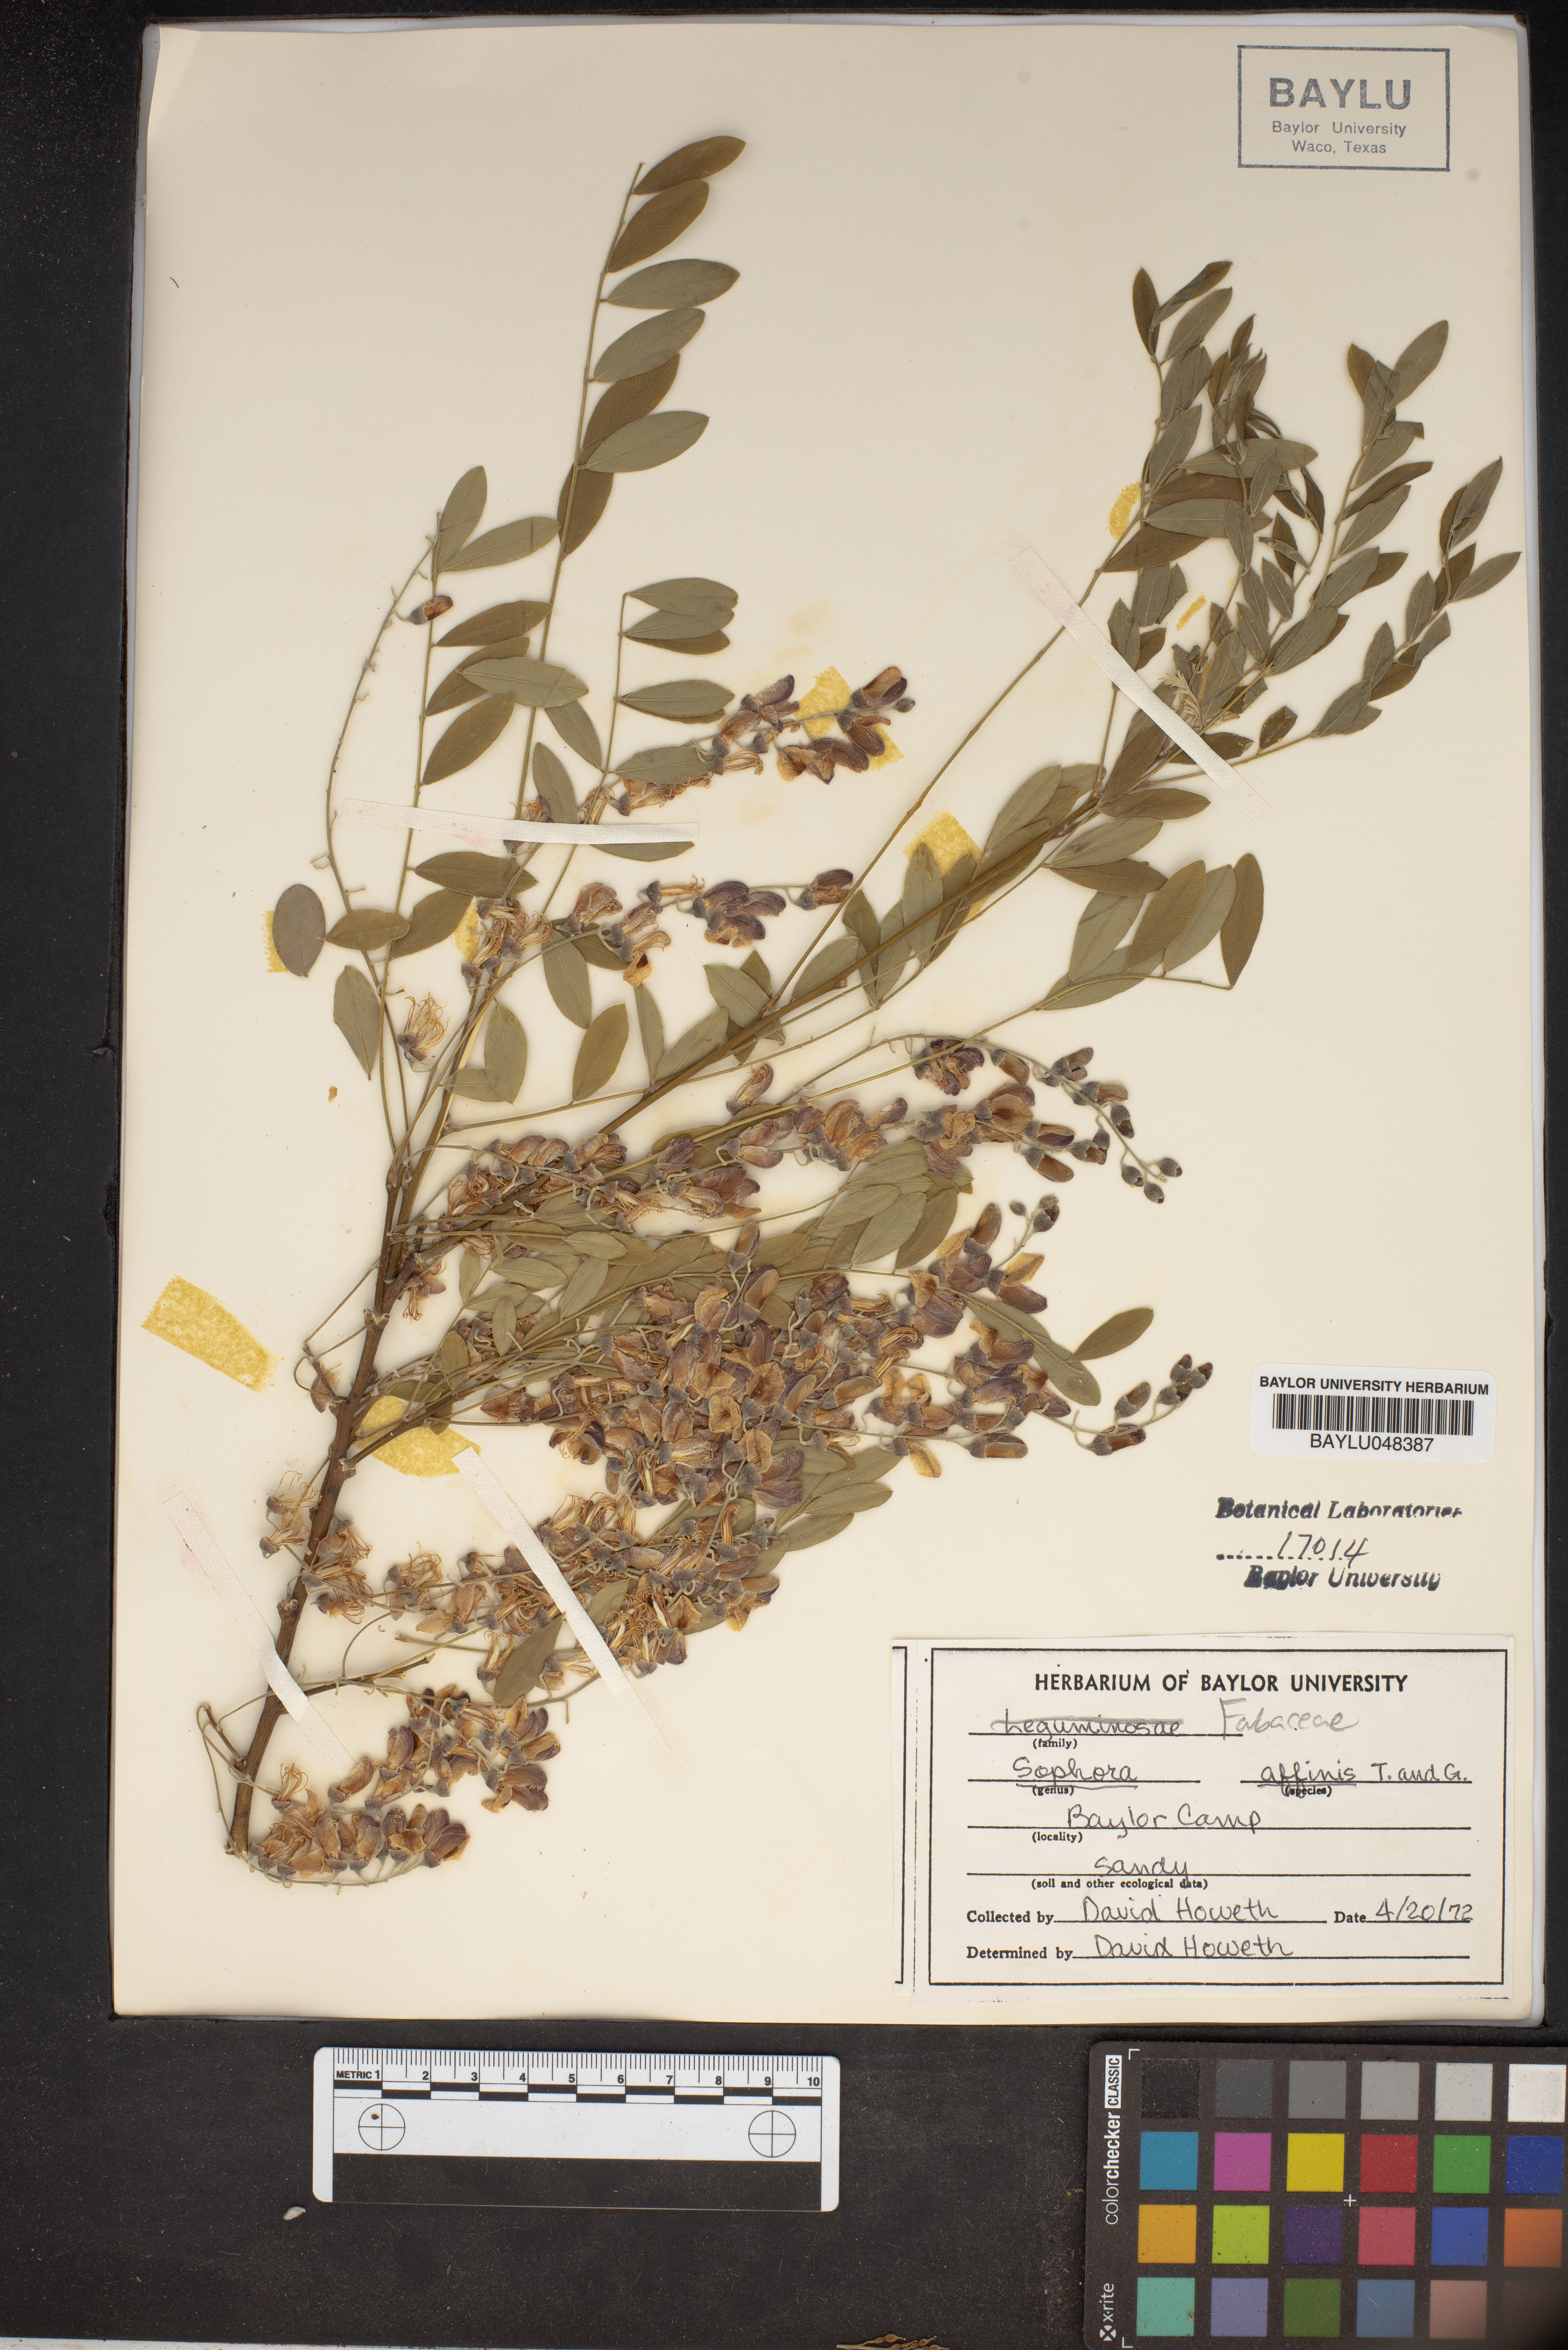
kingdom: Plantae
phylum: Tracheophyta
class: Magnoliopsida
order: Fabales
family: Fabaceae
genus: Styphnolobium
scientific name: Styphnolobium affine
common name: Texas sophora
